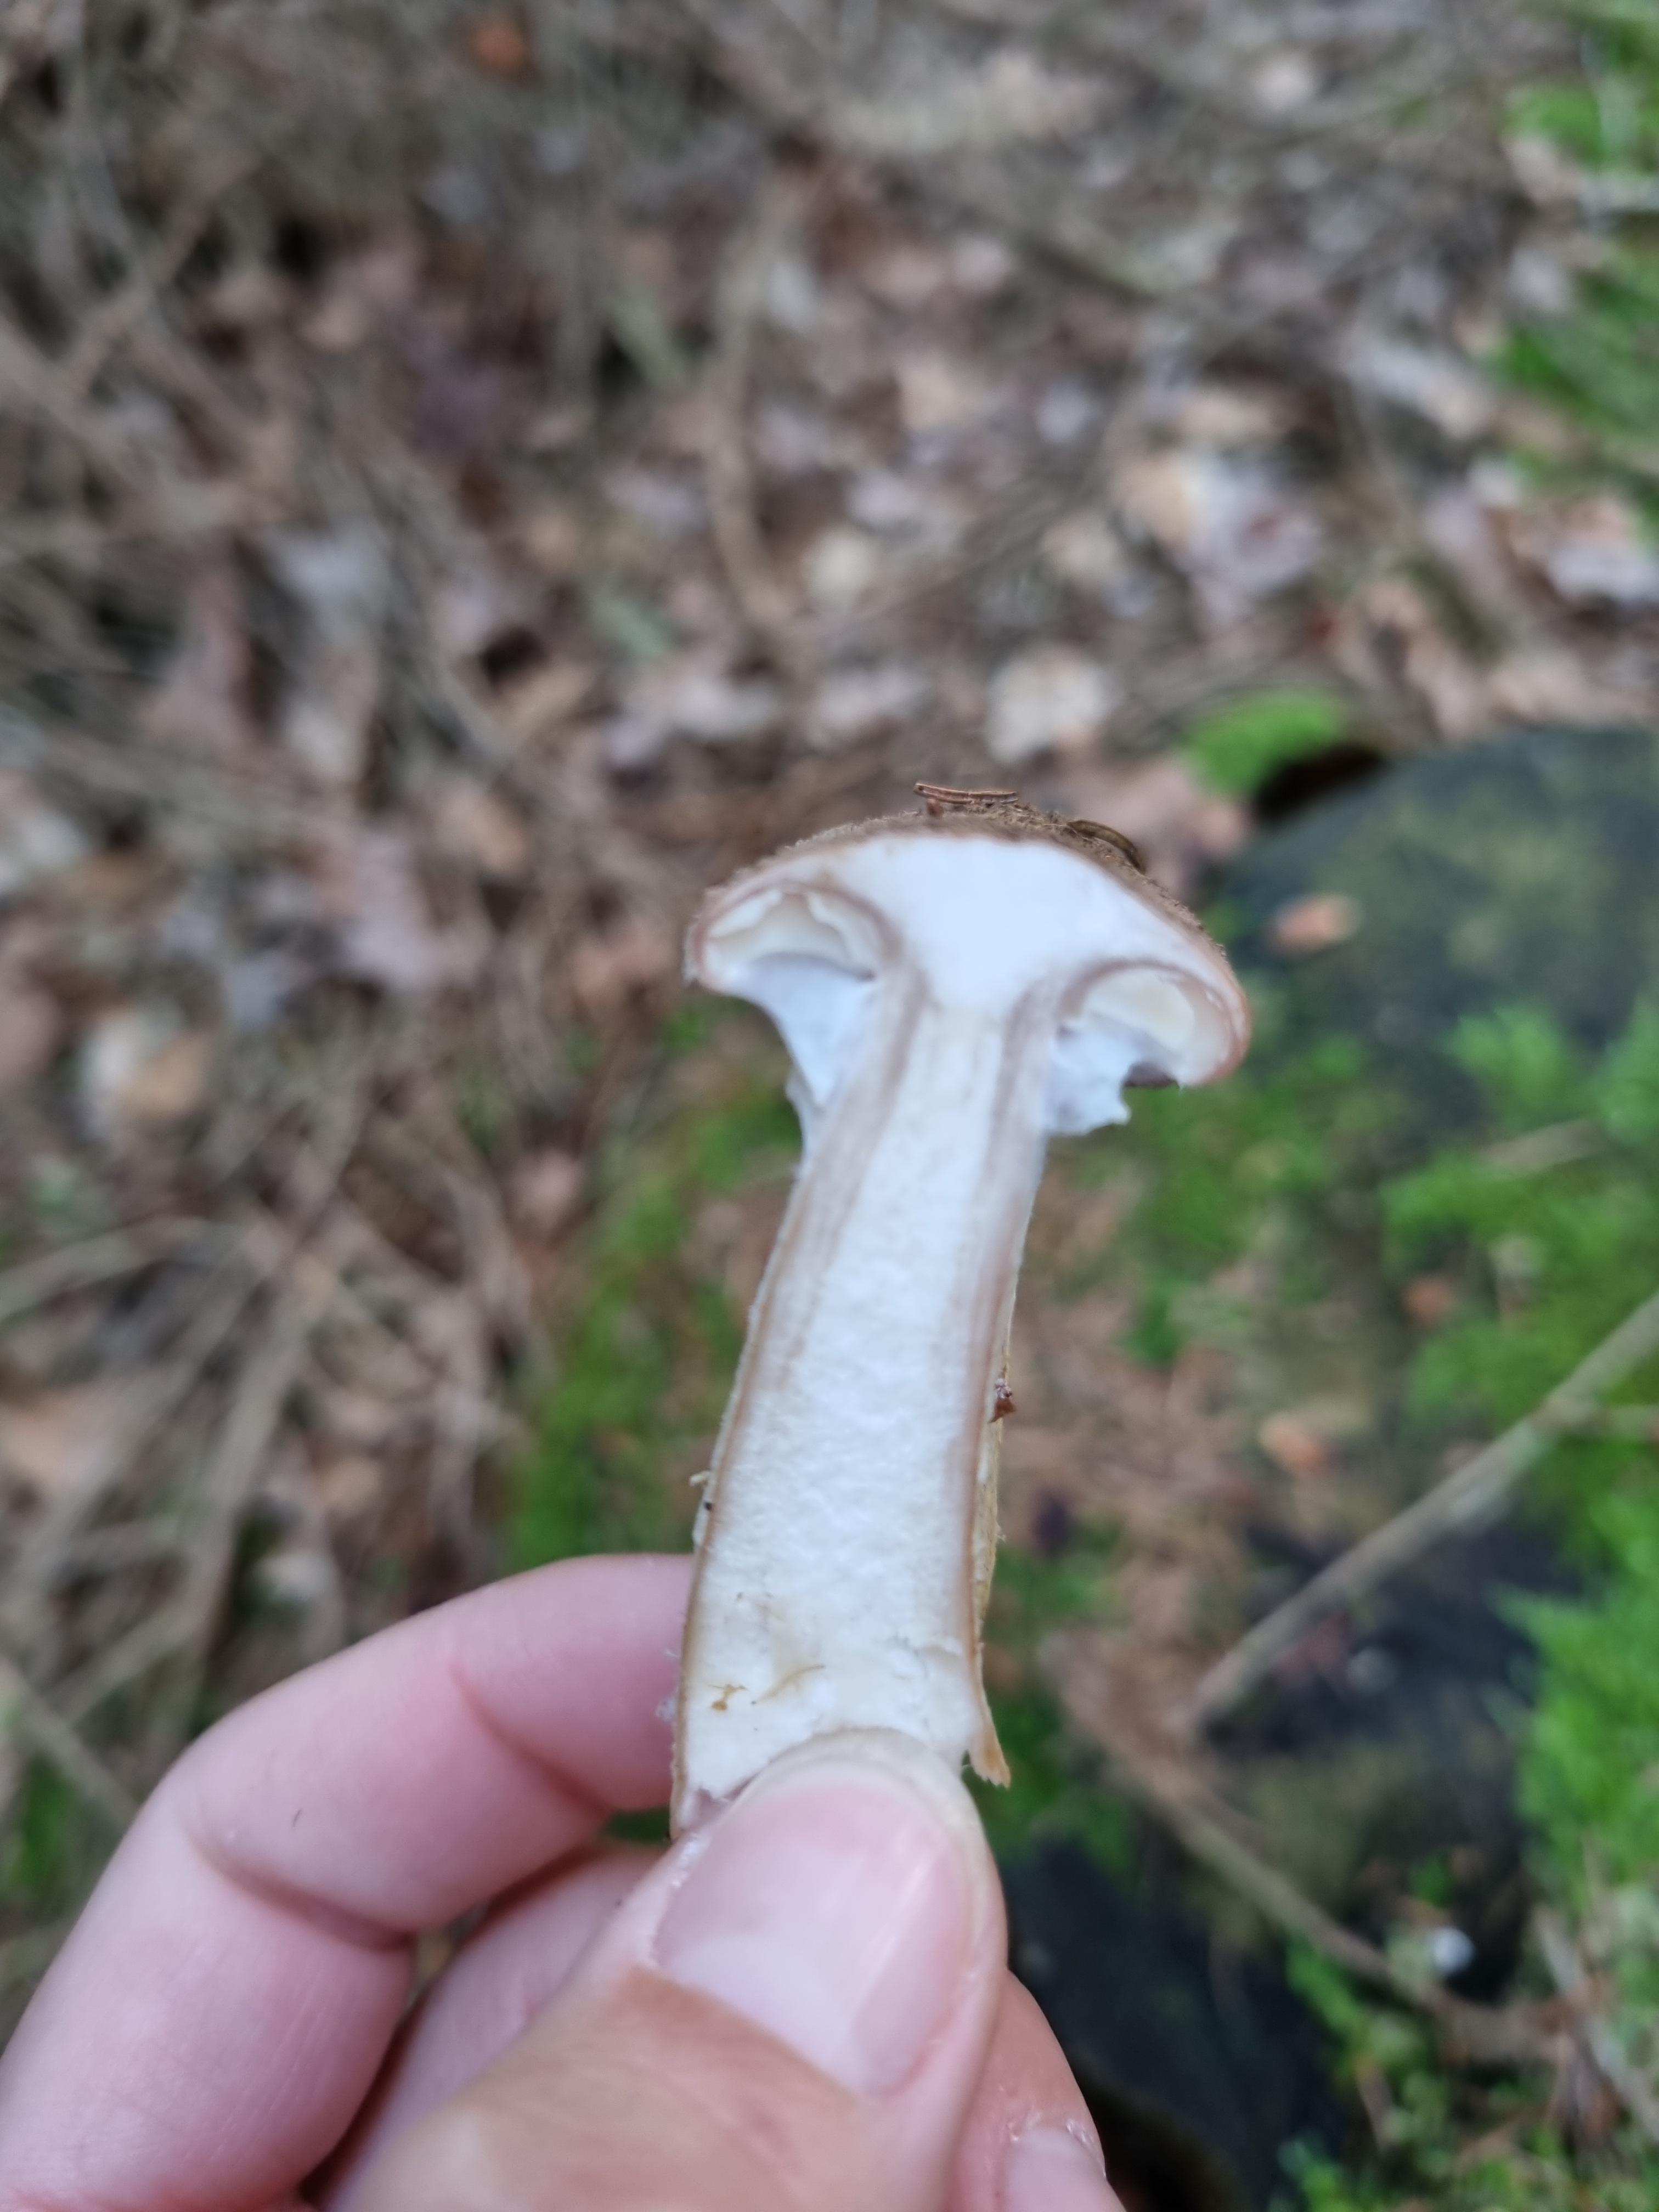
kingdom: Fungi
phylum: Basidiomycota
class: Agaricomycetes
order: Agaricales
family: Physalacriaceae
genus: Armillaria
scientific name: Armillaria
